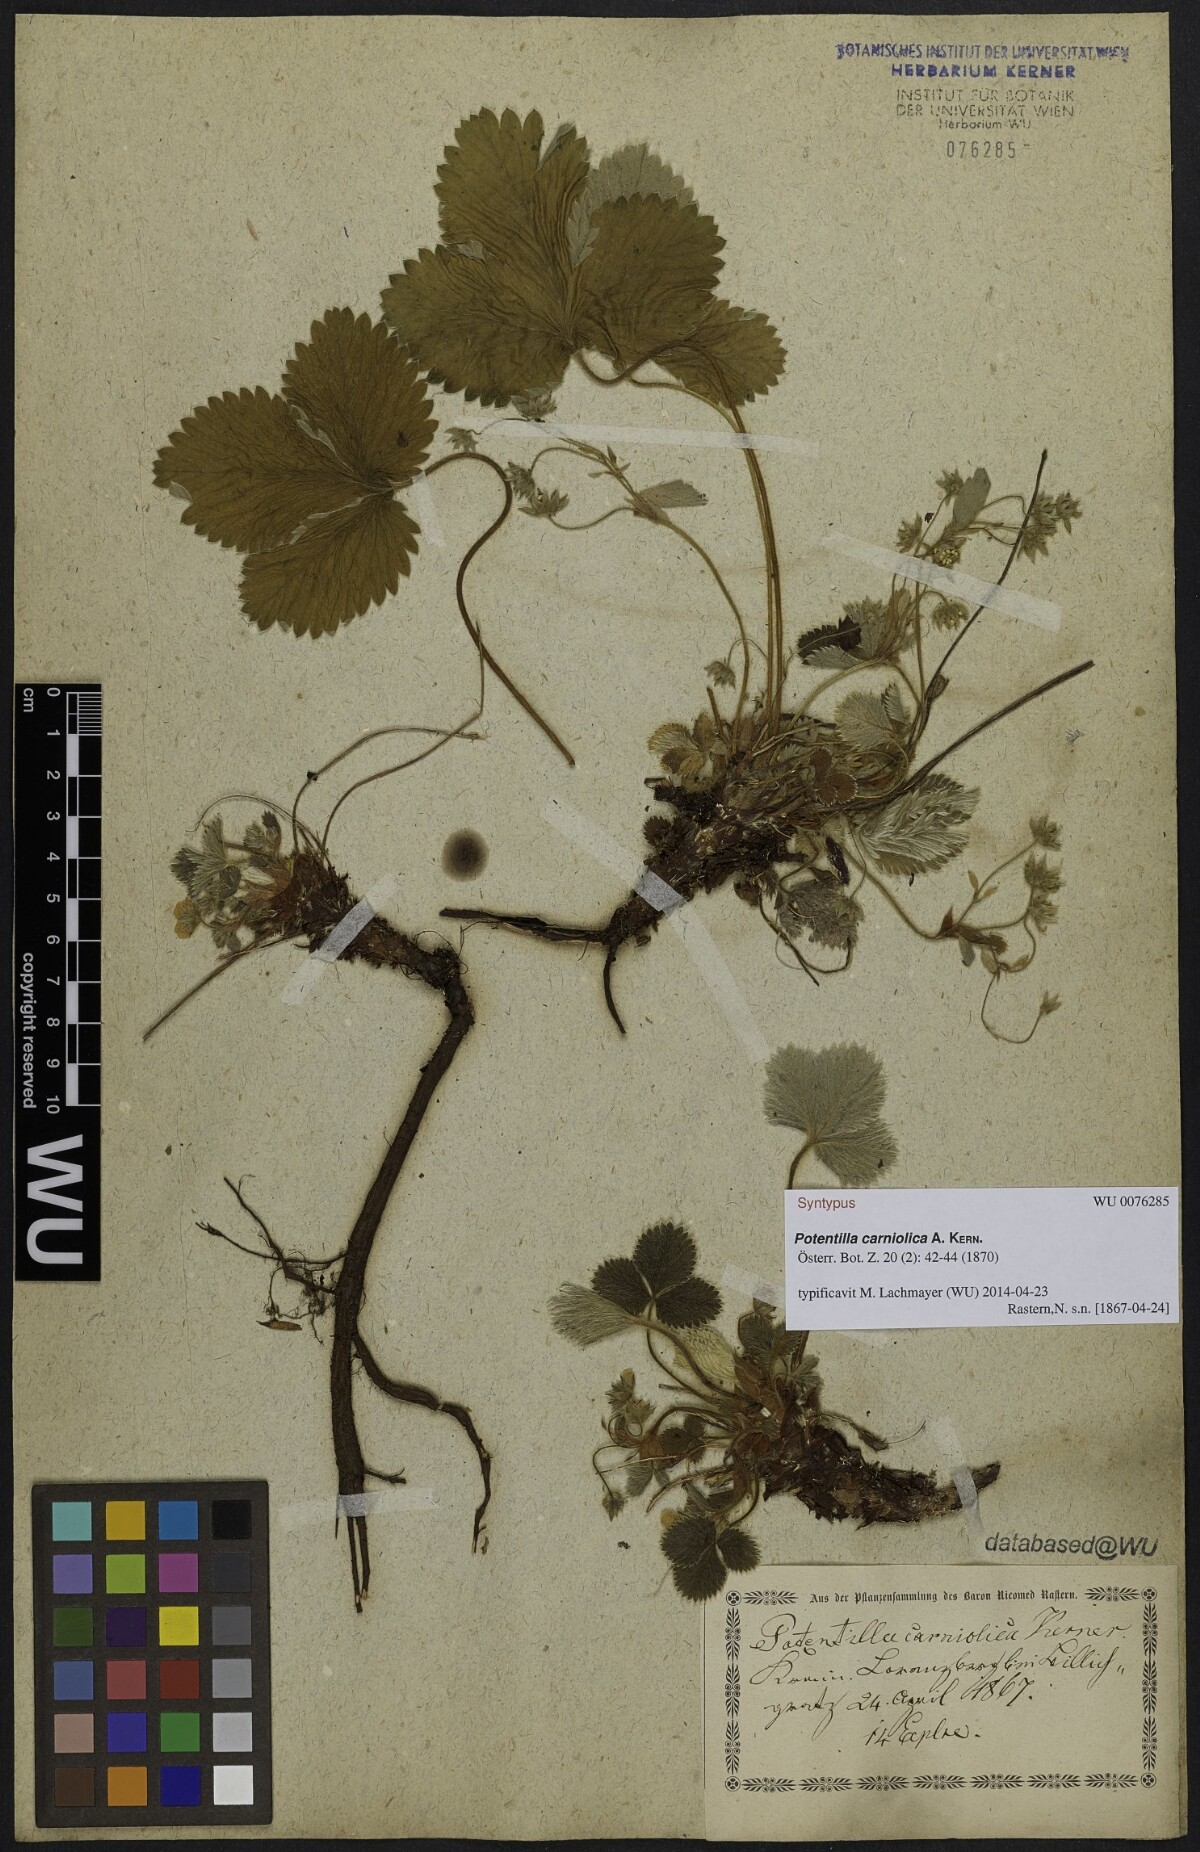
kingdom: Plantae
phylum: Tracheophyta
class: Magnoliopsida
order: Rosales
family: Rosaceae
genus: Potentilla
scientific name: Potentilla carniolica
